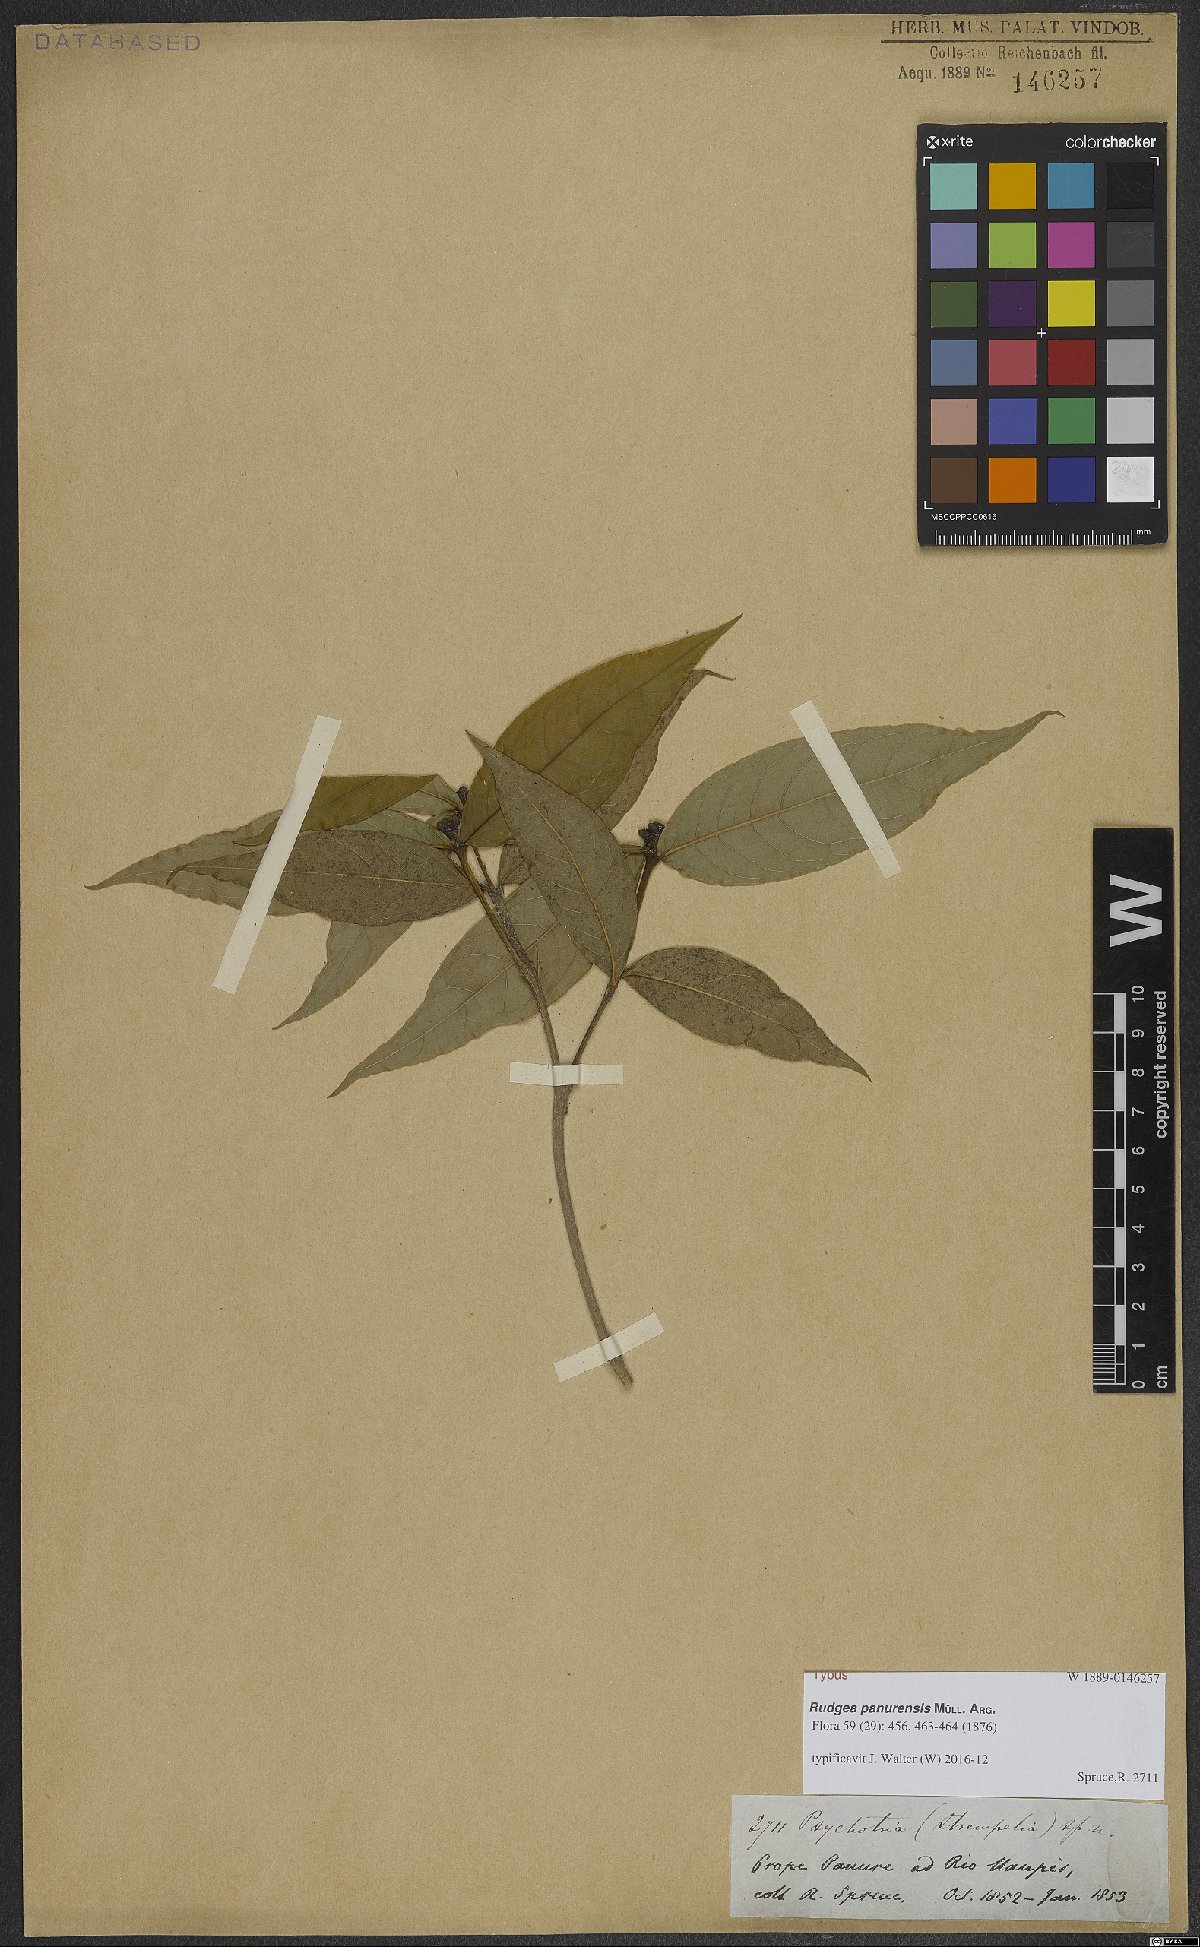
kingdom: Plantae
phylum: Tracheophyta
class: Magnoliopsida
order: Gentianales
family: Rubiaceae
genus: Rudgea
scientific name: Rudgea panurensis
